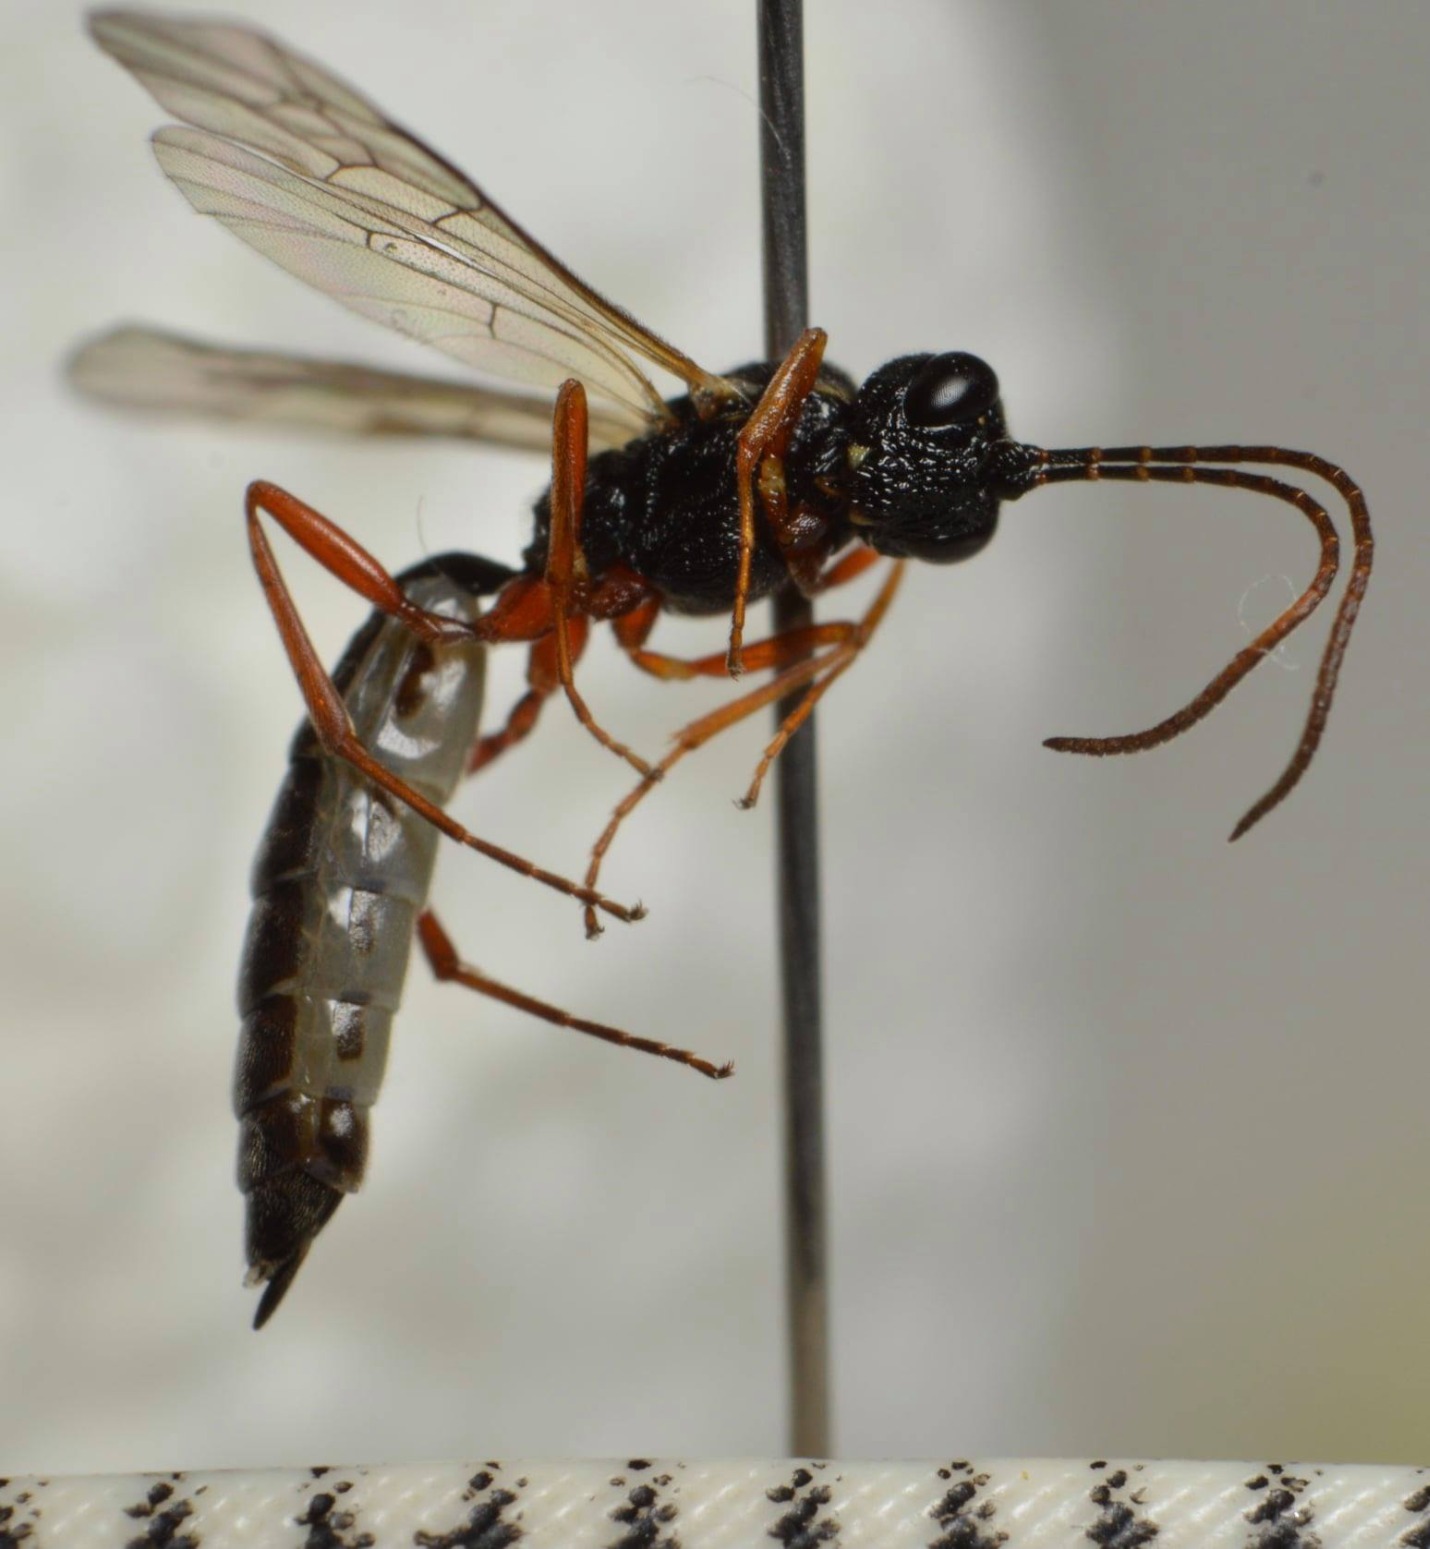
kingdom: Animalia
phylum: Arthropoda
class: Insecta
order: Hymenoptera
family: Ichneumonidae
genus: Heterischnus
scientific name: Heterischnus pulex
